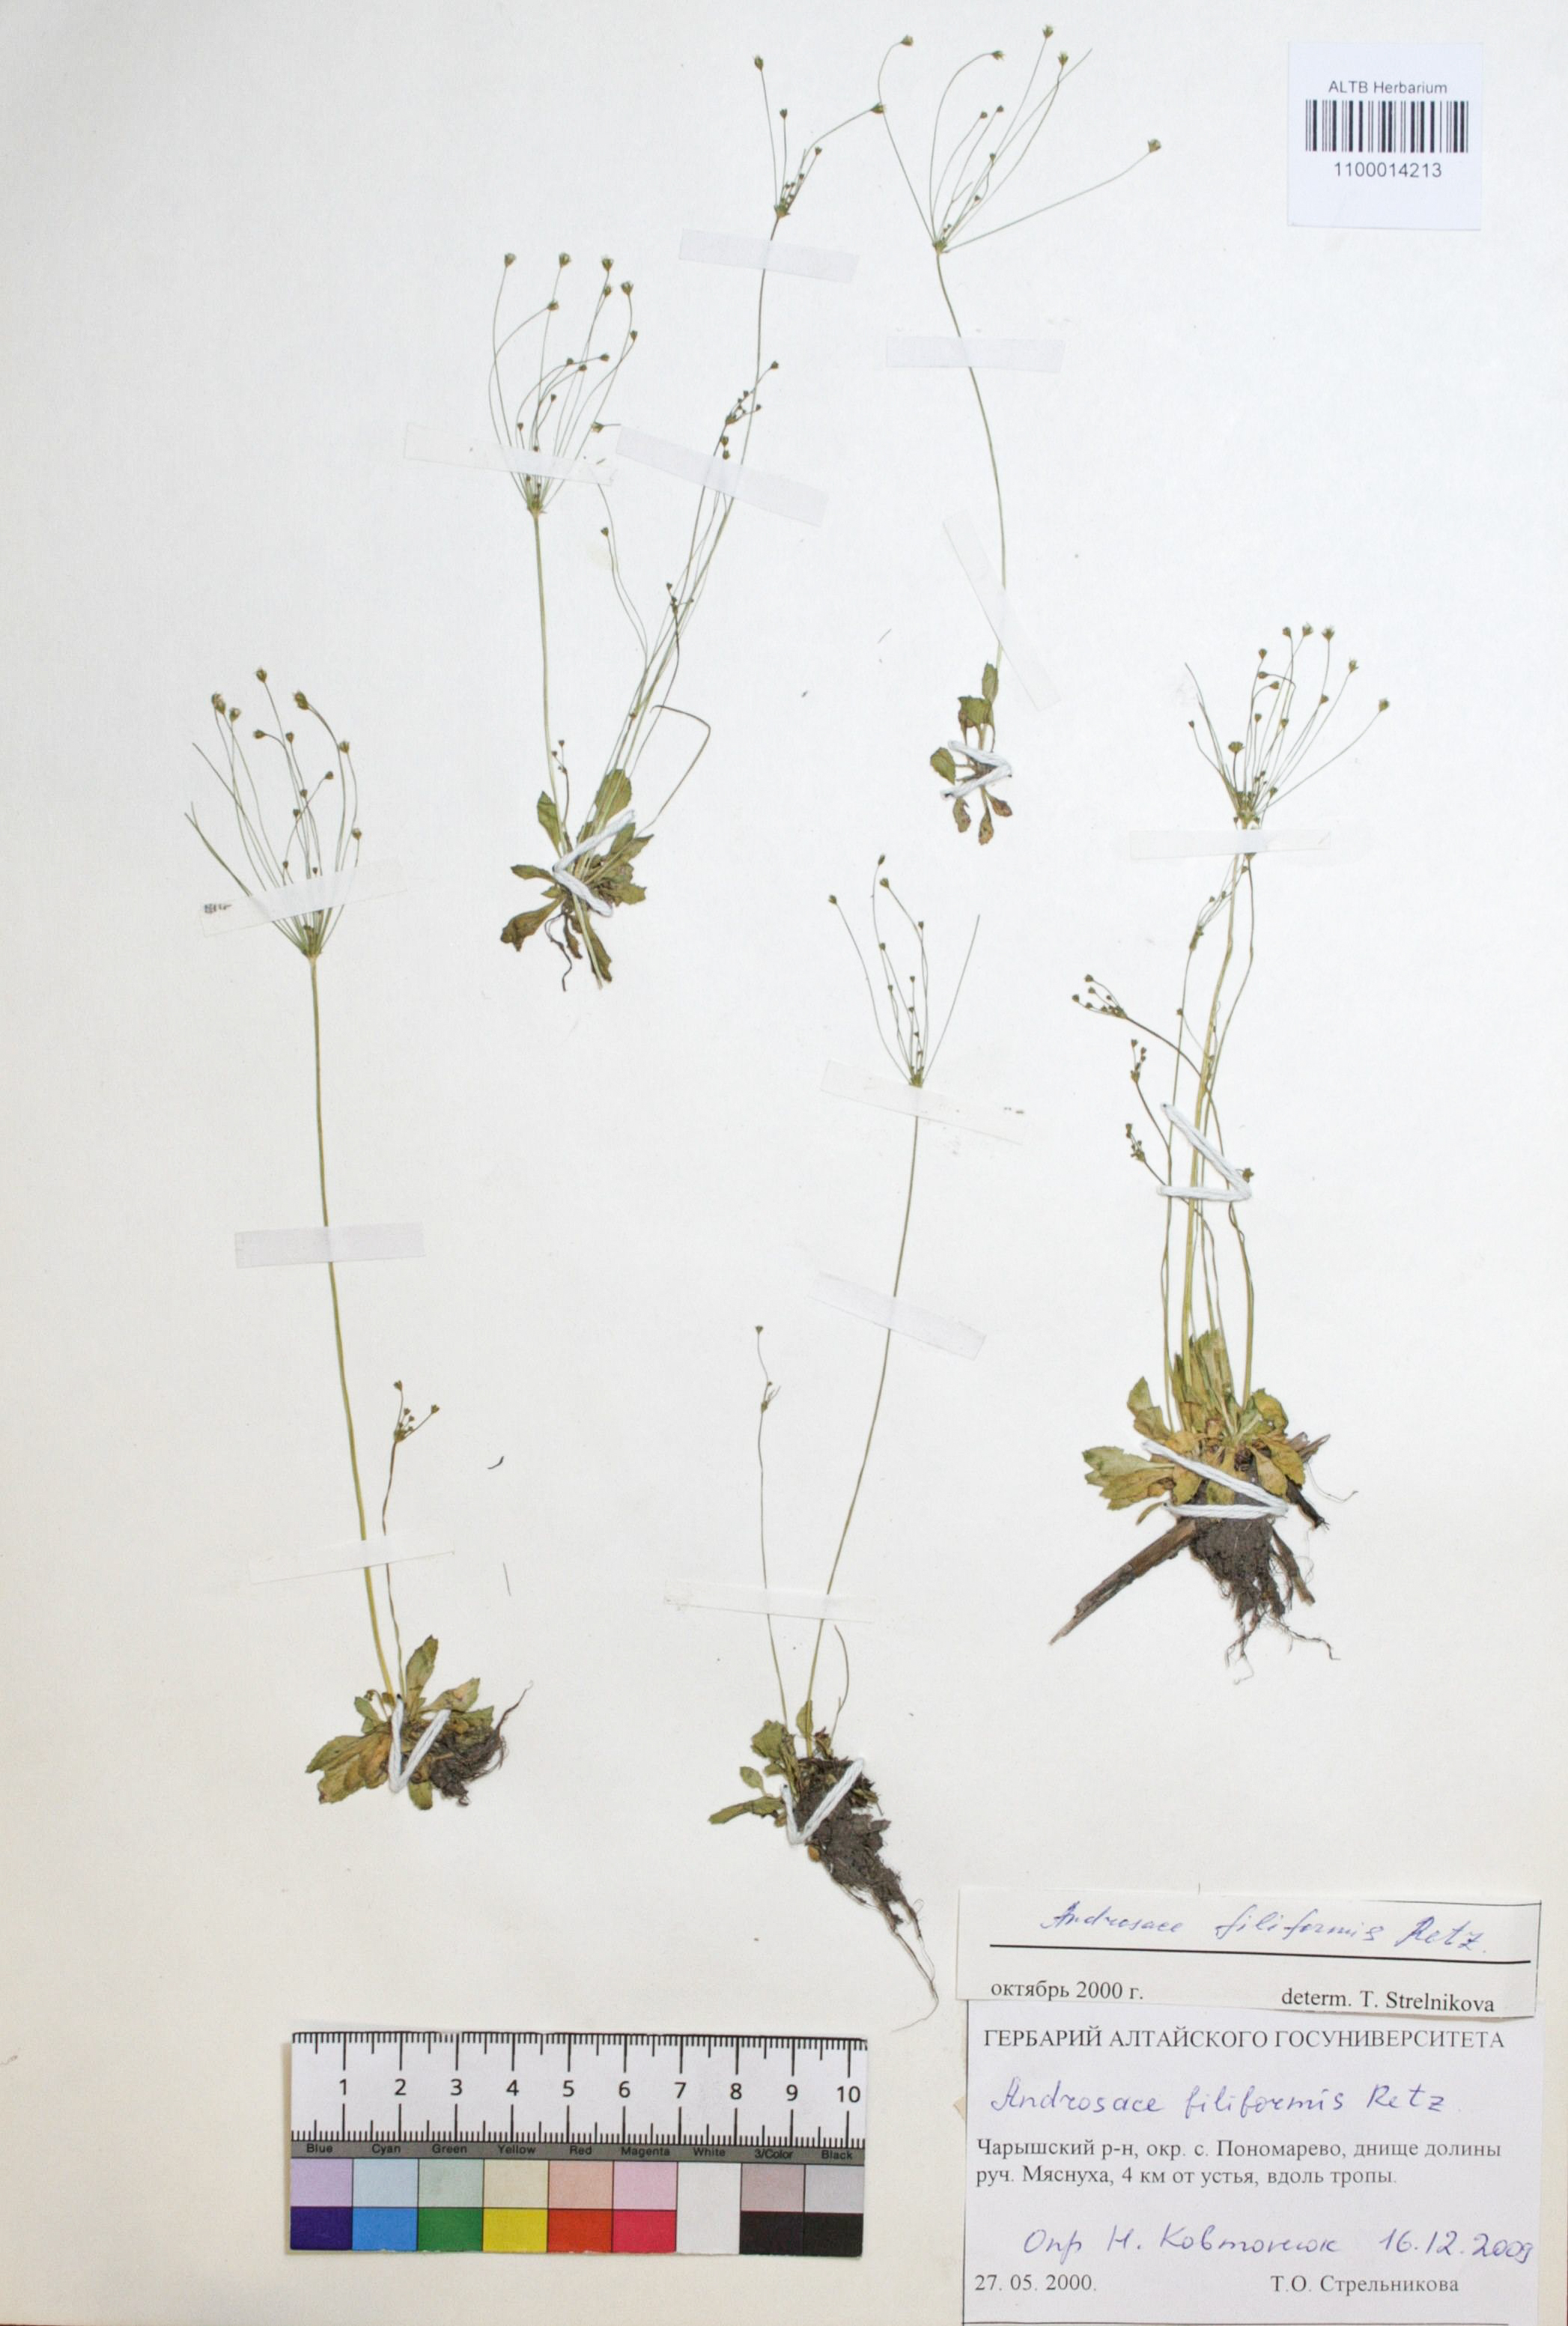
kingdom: Plantae
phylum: Tracheophyta
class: Magnoliopsida
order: Ericales
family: Primulaceae
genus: Androsace
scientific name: Androsace filiformis
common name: Filiform rock jasmine
